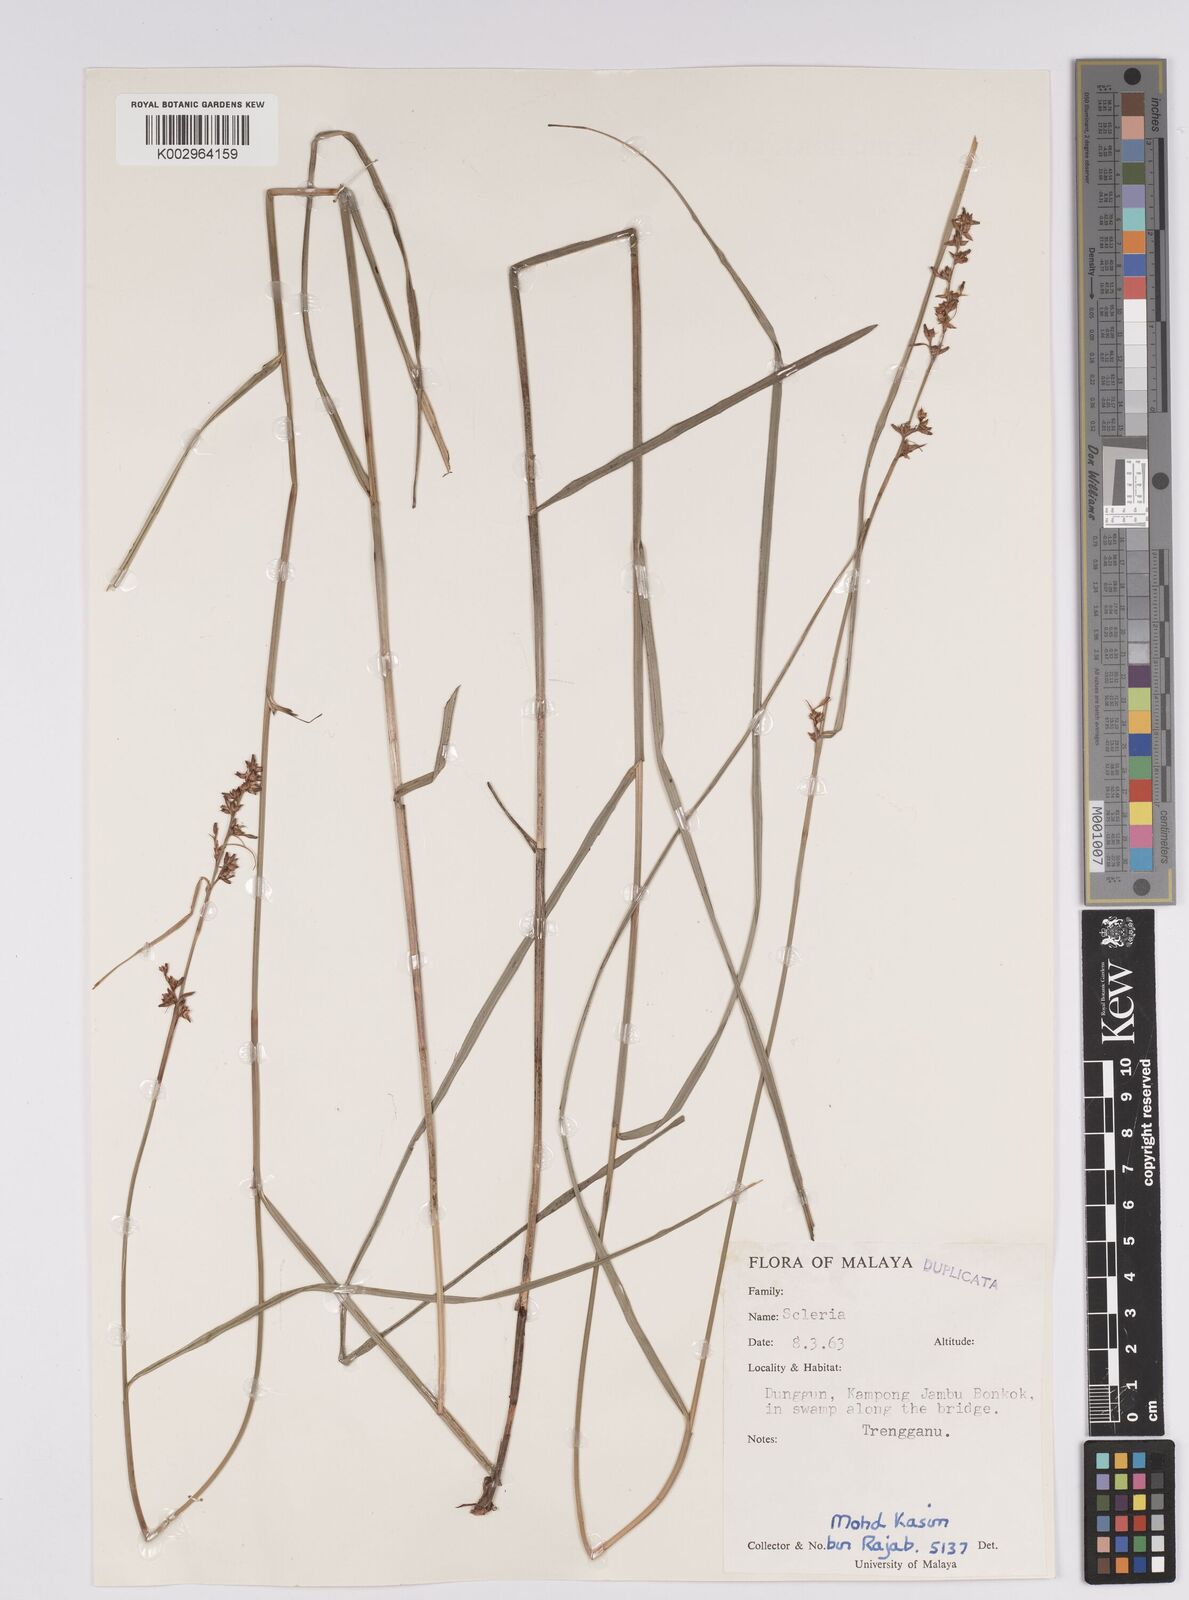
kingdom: Plantae
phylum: Tracheophyta
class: Liliopsida
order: Poales
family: Cyperaceae
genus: Scleria
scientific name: Scleria
